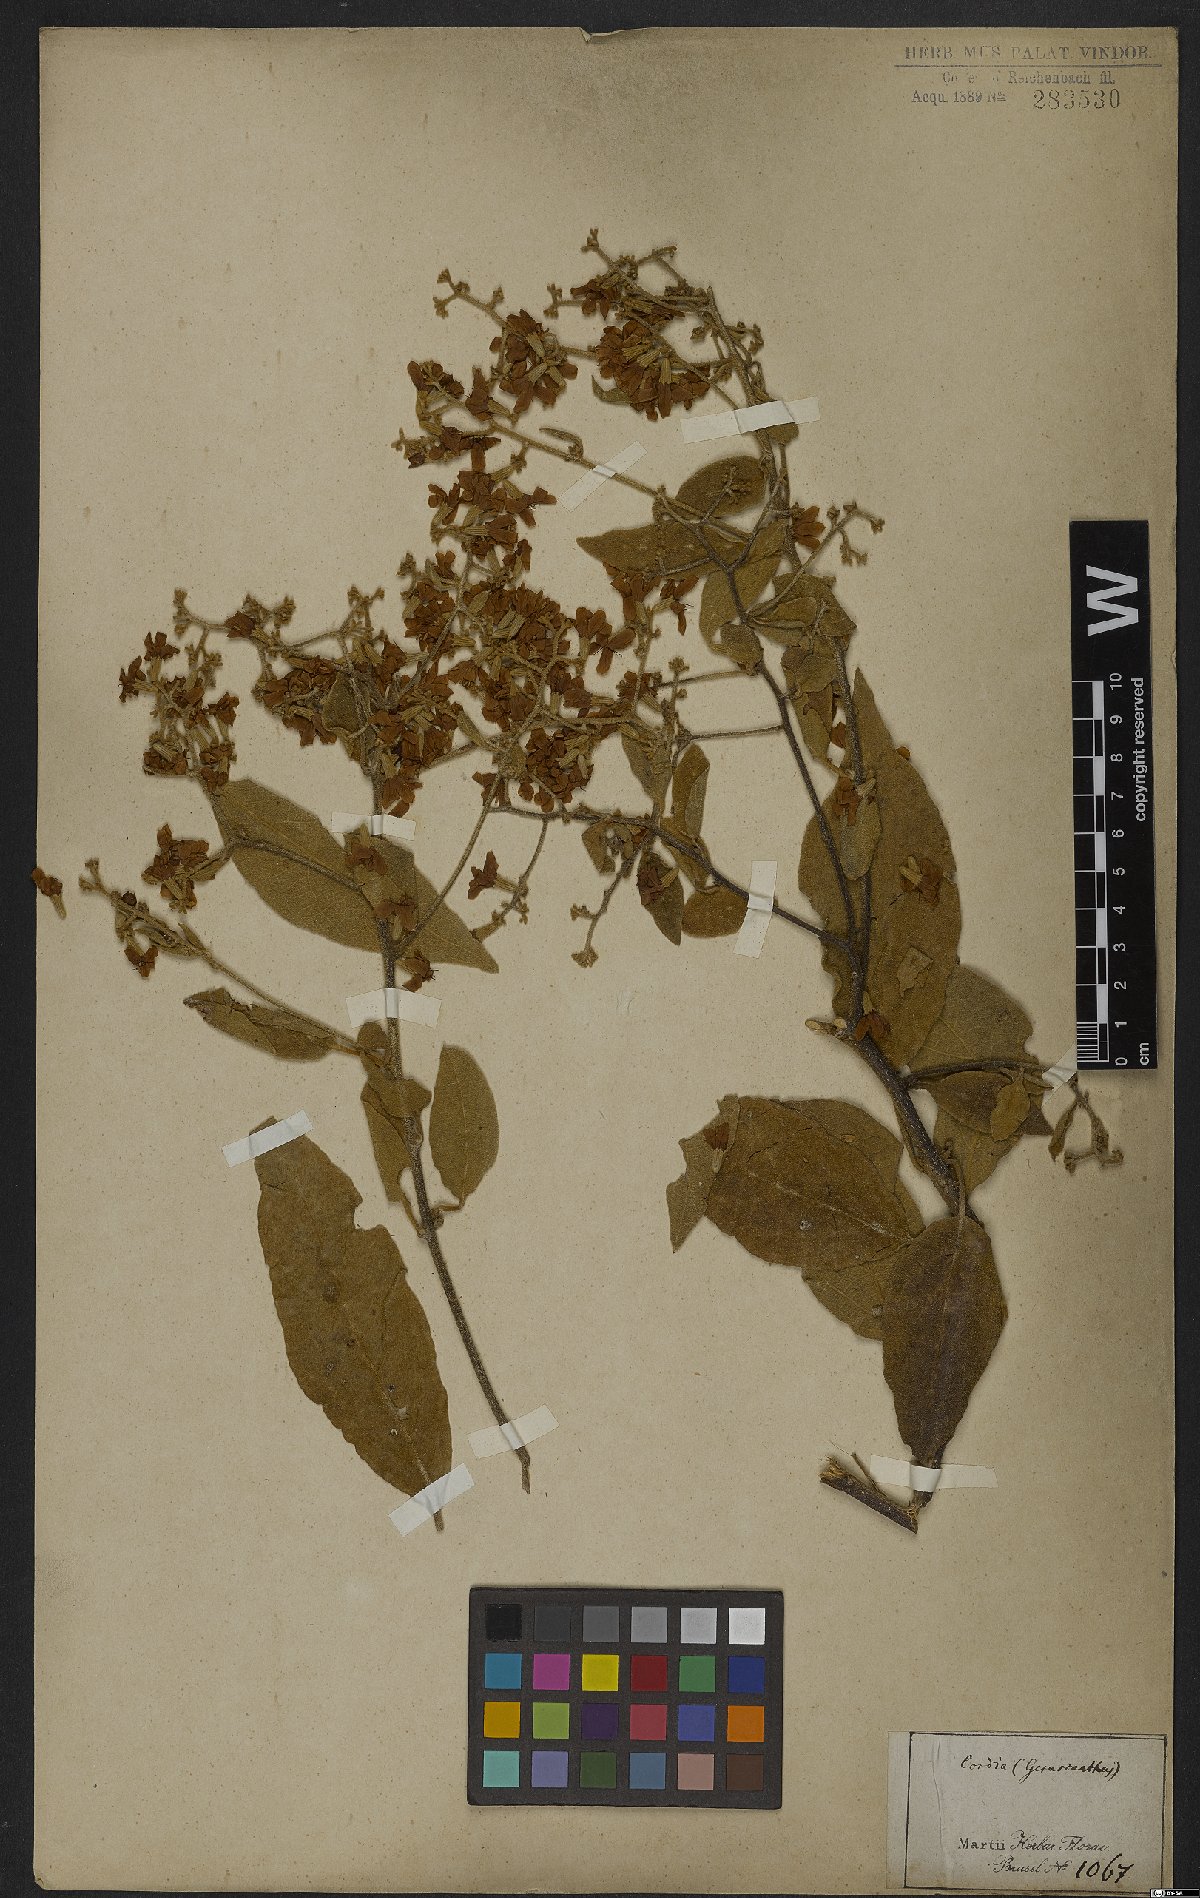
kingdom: Plantae
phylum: Tracheophyta
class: Magnoliopsida
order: Boraginales
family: Cordiaceae
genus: Cordia
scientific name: Cordia gerascanthus
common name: Baria
